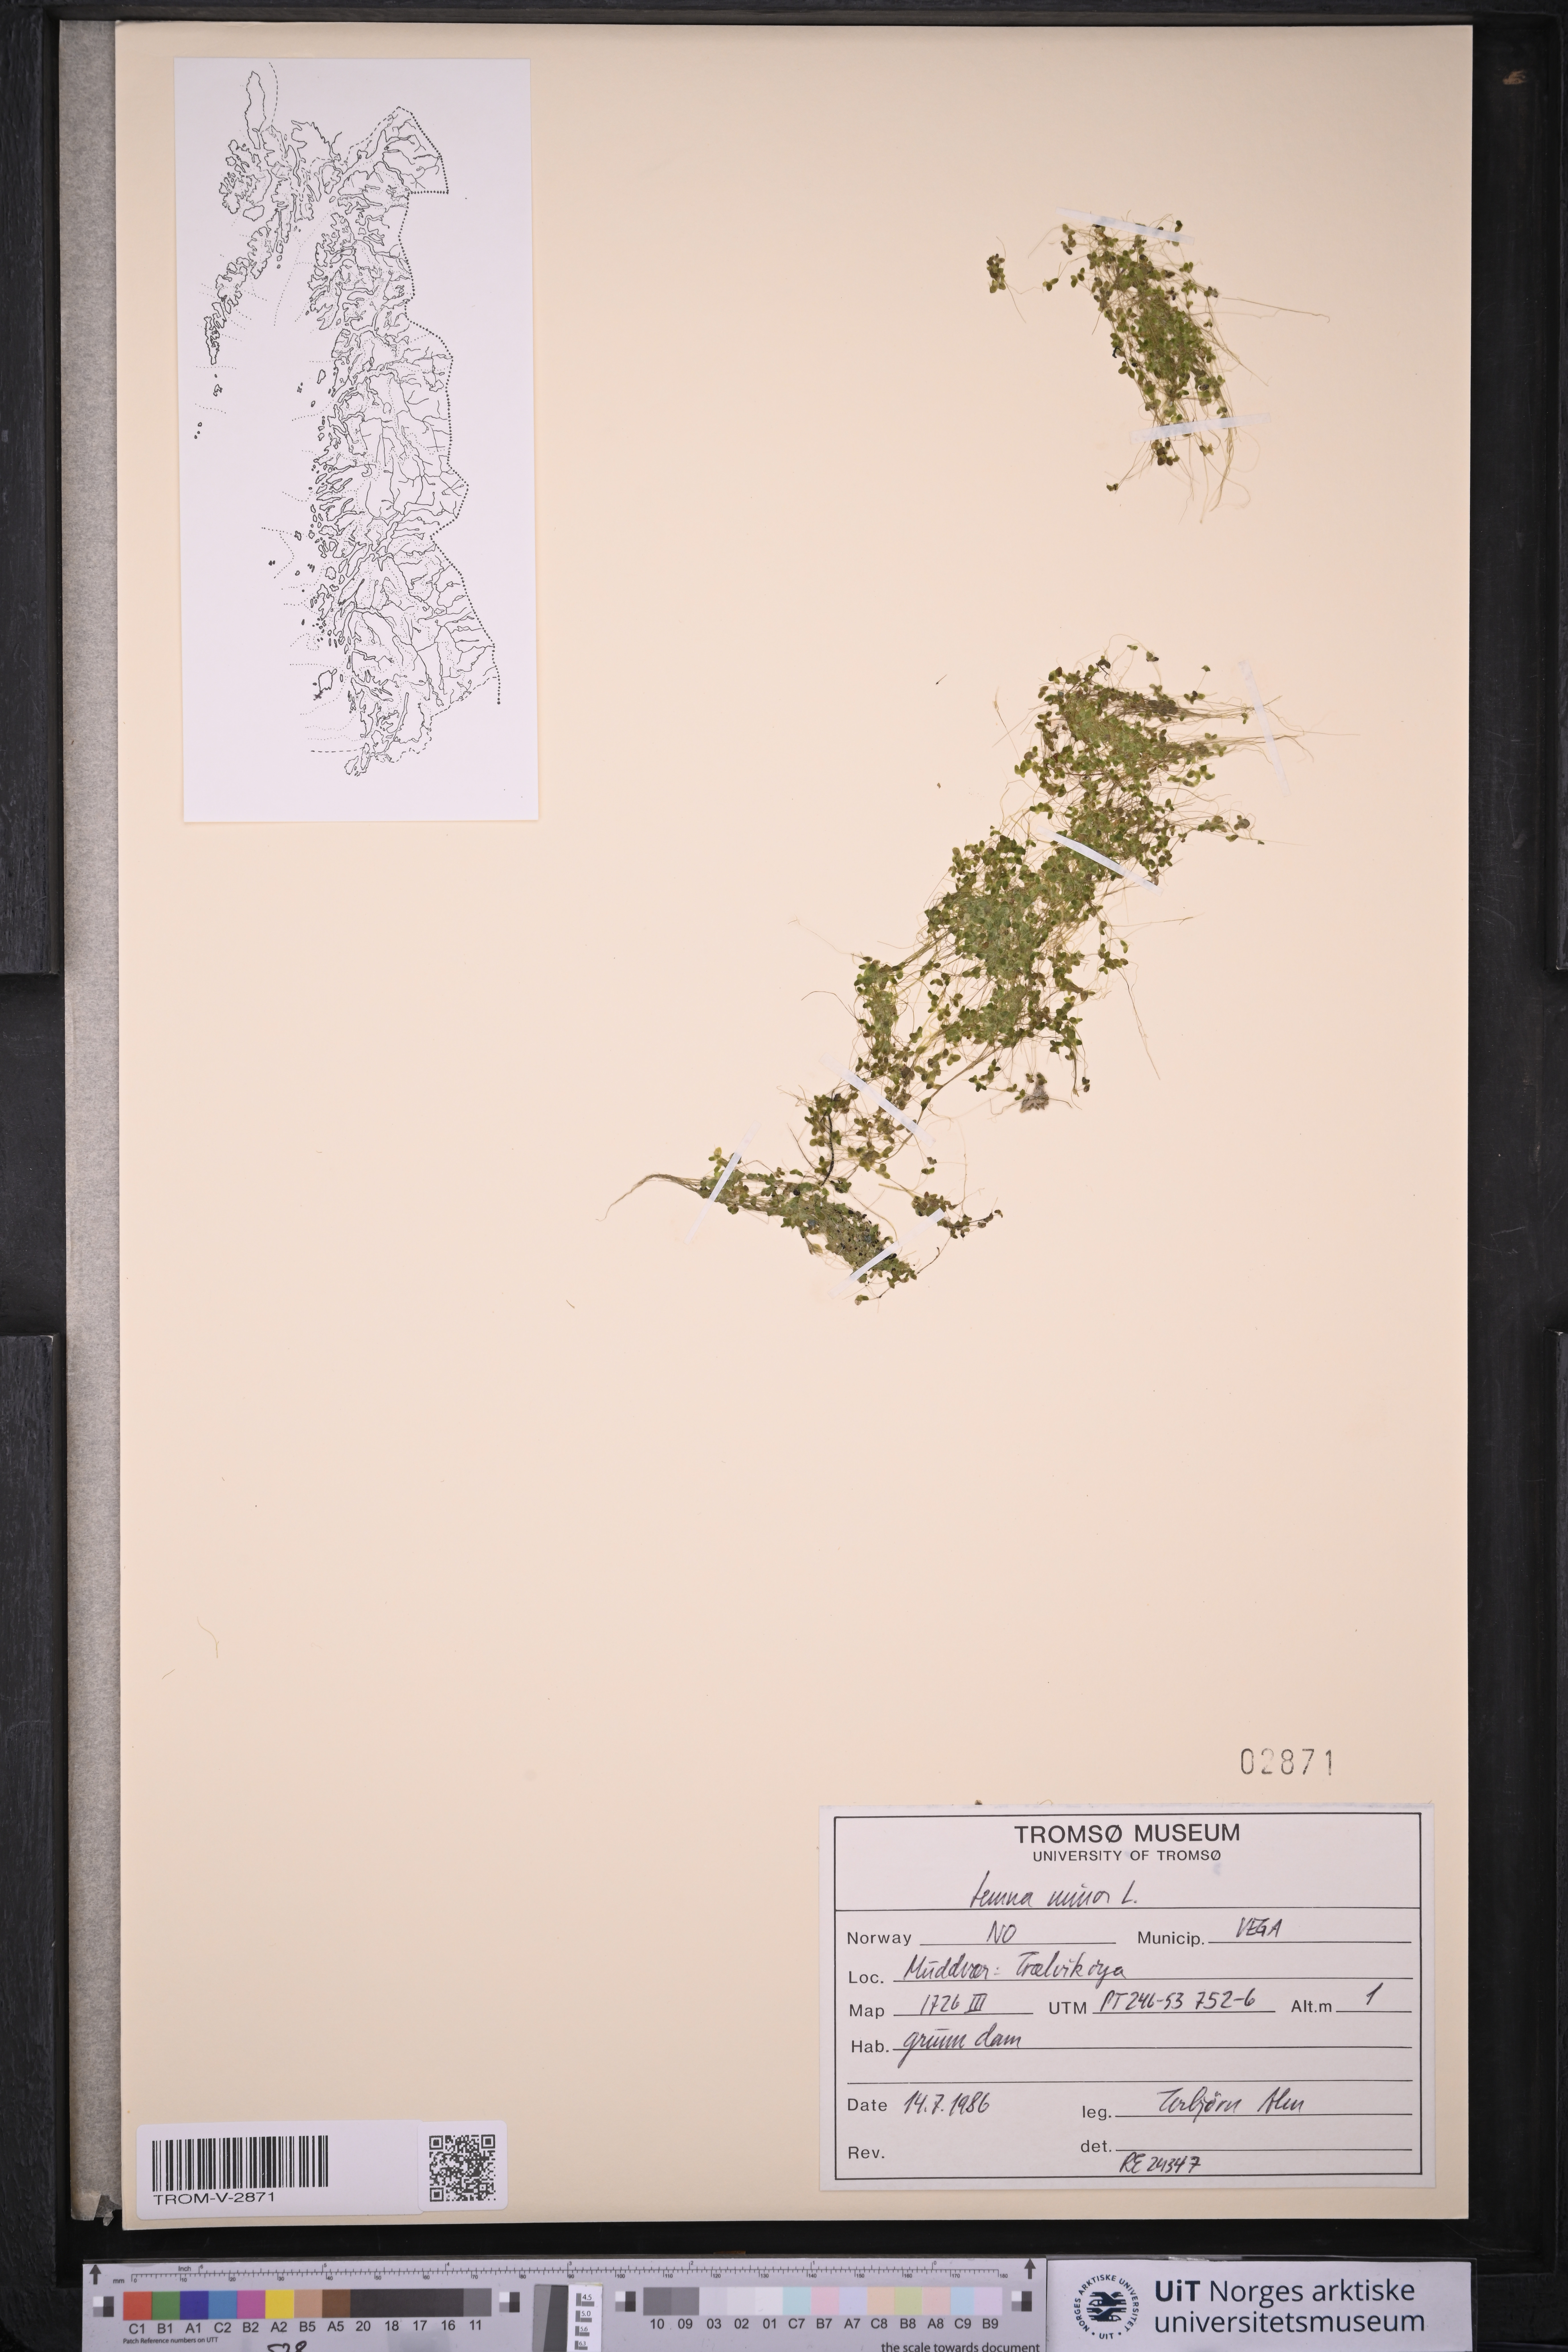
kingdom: Plantae
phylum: Tracheophyta
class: Liliopsida
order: Alismatales
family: Araceae
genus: Lemna
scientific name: Lemna minor
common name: Common duckweed
